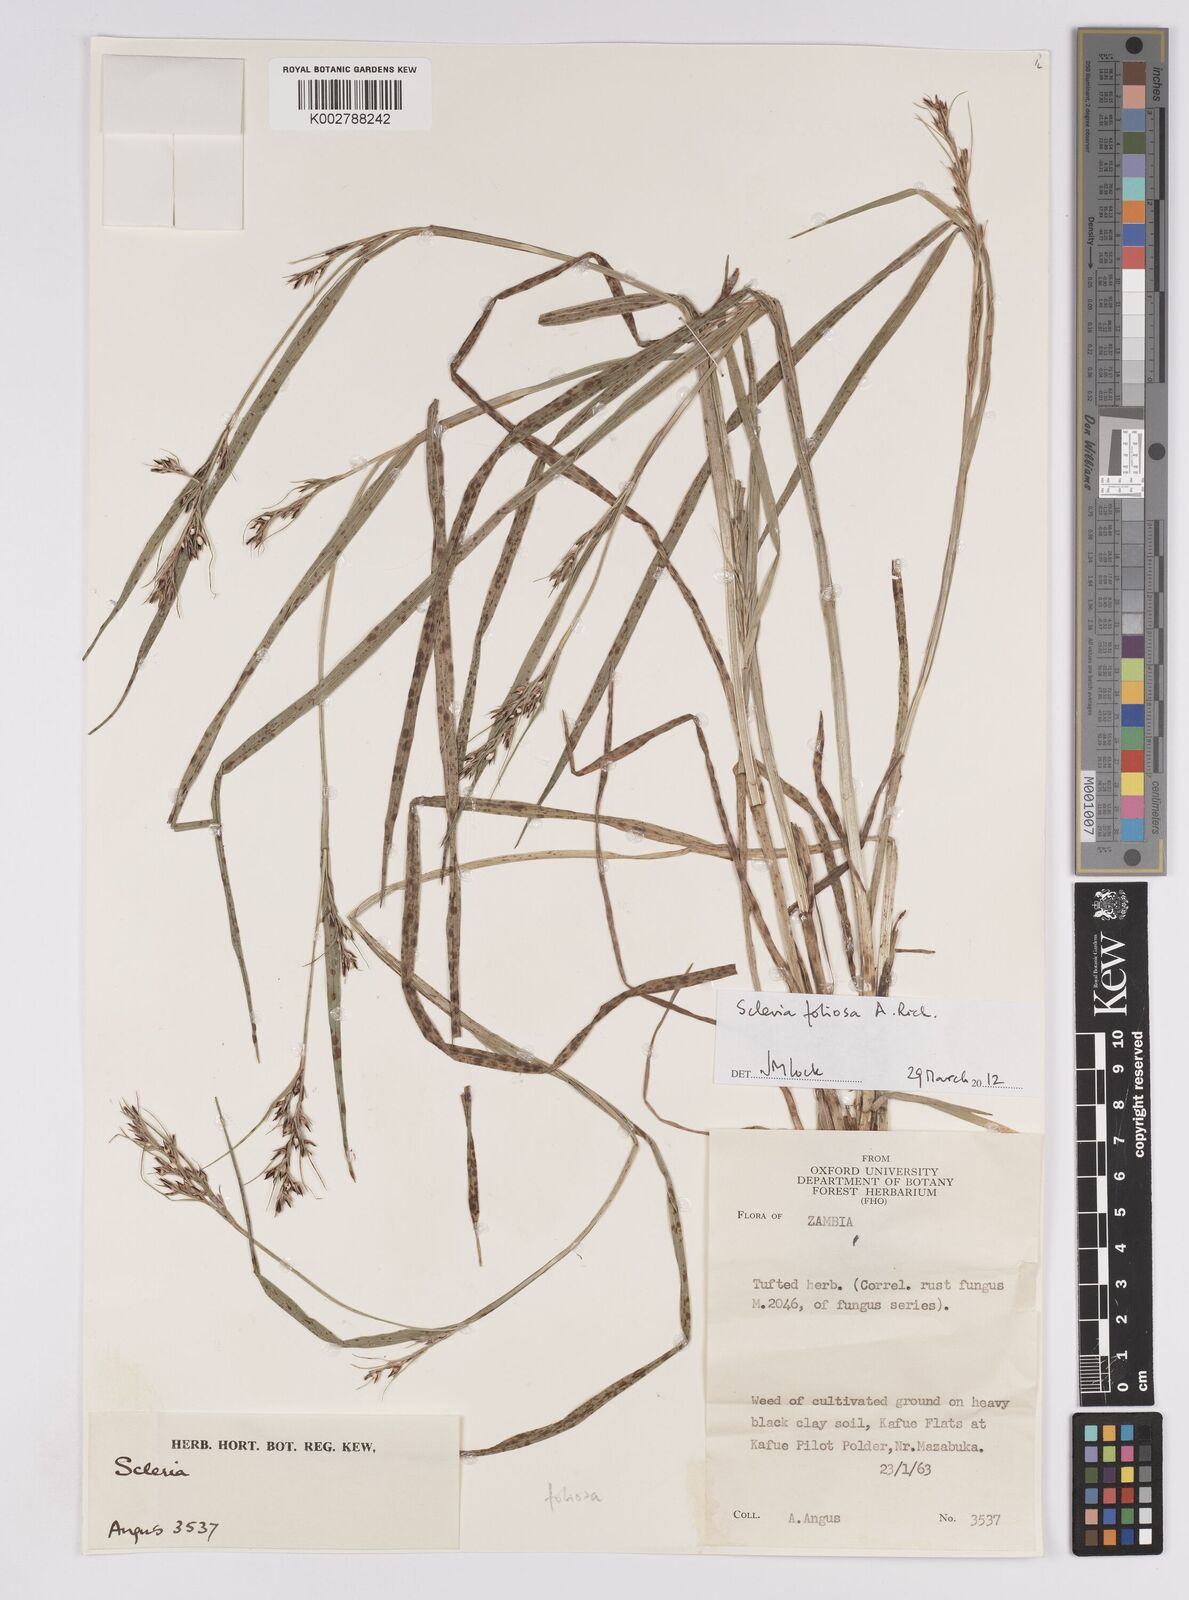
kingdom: Plantae
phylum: Tracheophyta
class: Liliopsida
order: Poales
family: Cyperaceae
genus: Scleria
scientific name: Scleria foliosa
